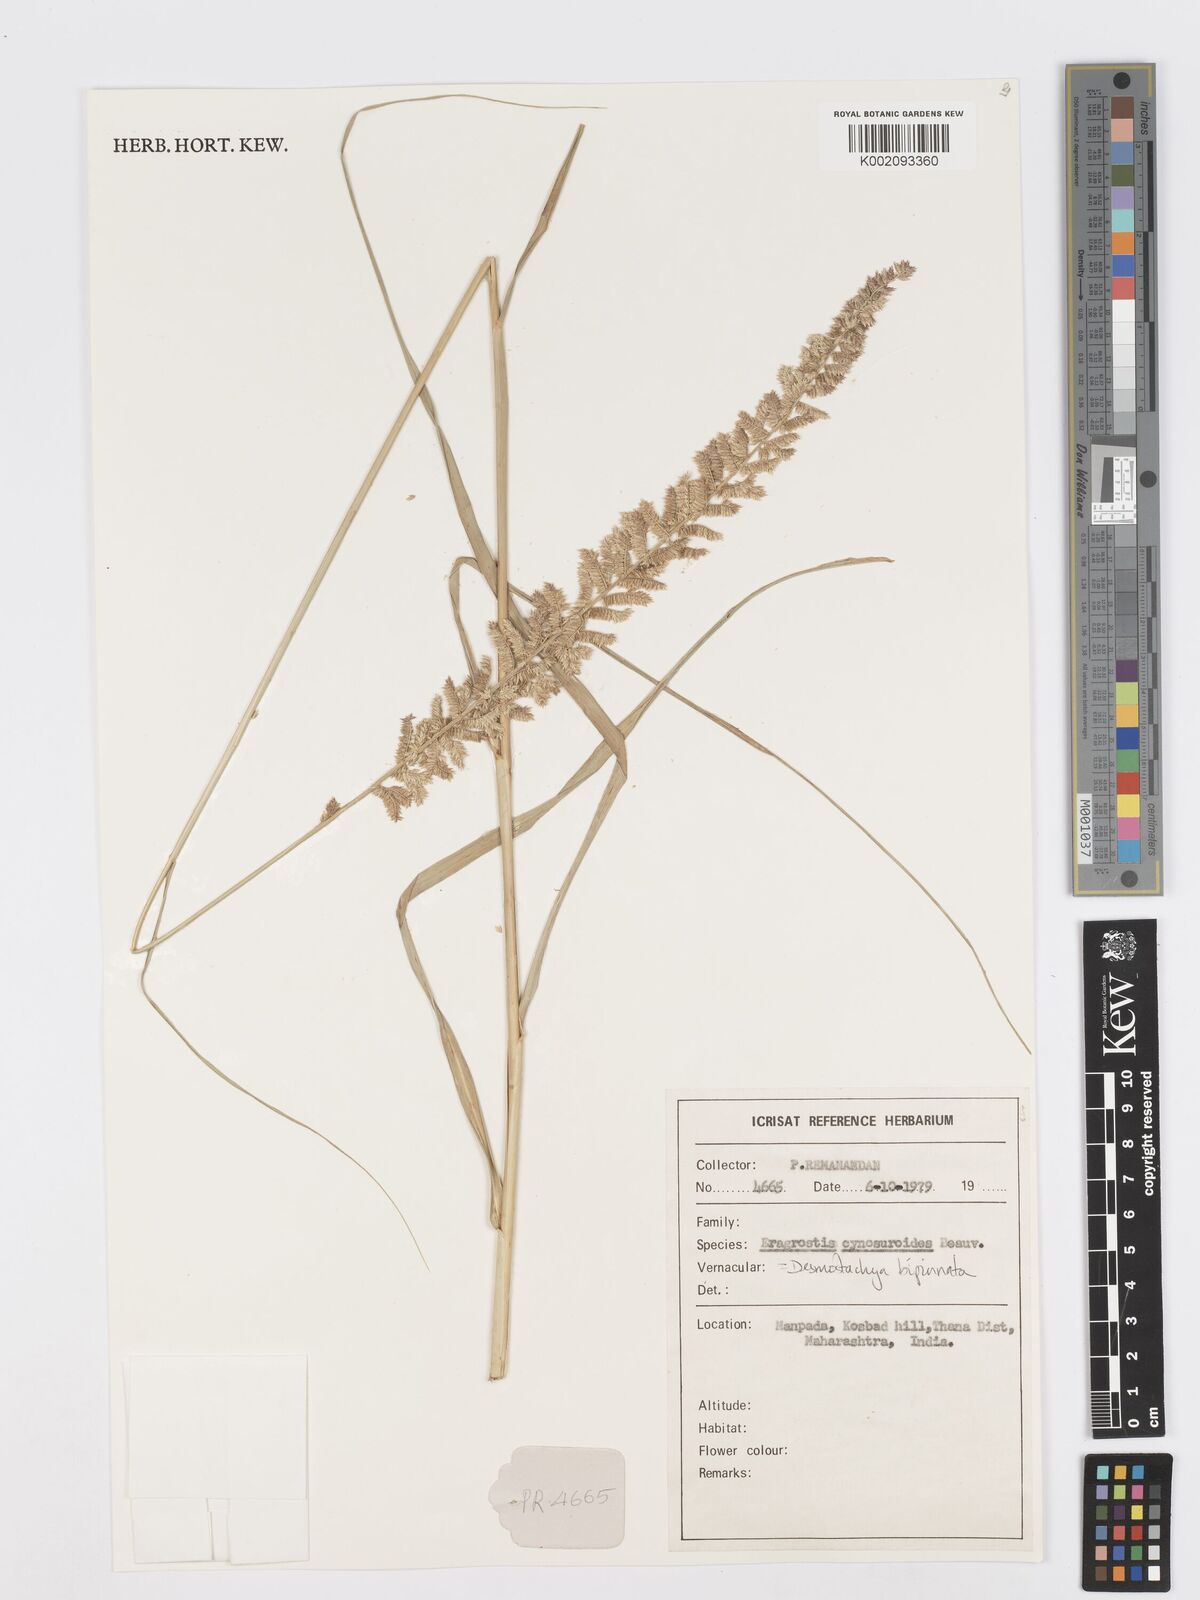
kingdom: Plantae
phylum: Tracheophyta
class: Liliopsida
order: Poales
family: Poaceae
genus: Desmostachya
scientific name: Desmostachya bipinnata
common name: Crowfoot grass
